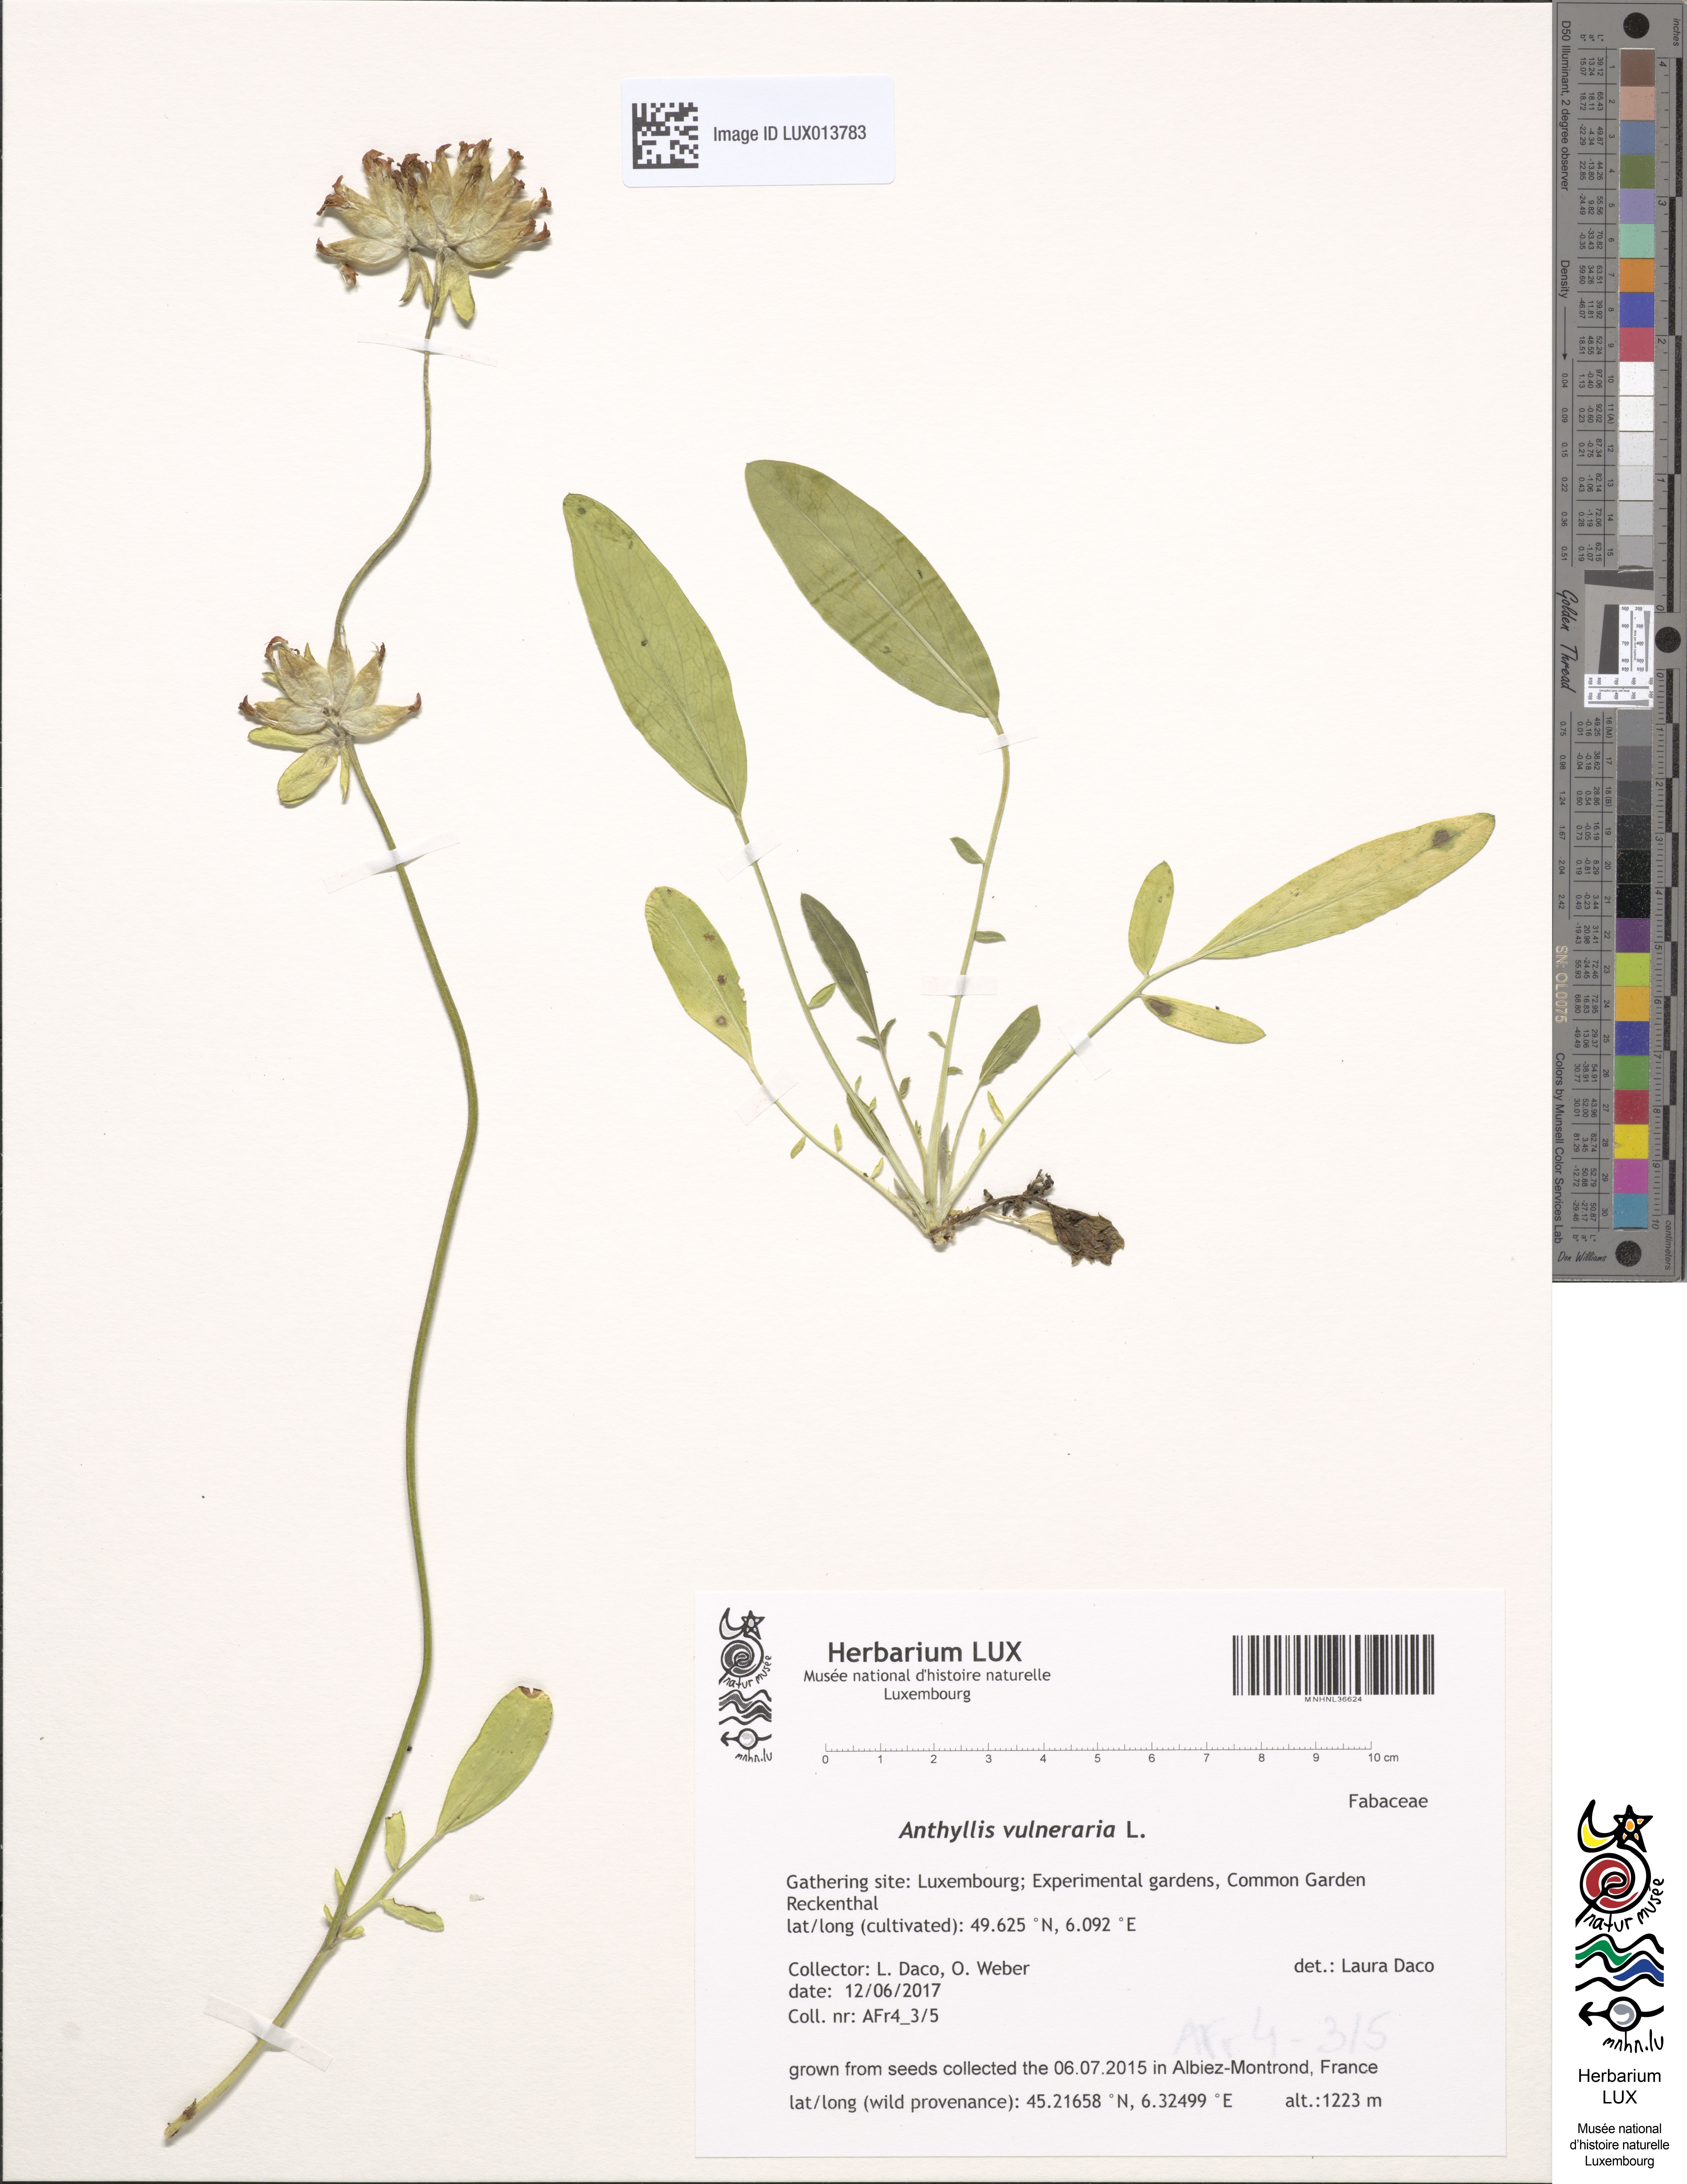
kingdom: Plantae
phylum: Tracheophyta
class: Magnoliopsida
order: Fabales
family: Fabaceae
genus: Anthyllis
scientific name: Anthyllis vulneraria
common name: Kidney vetch
